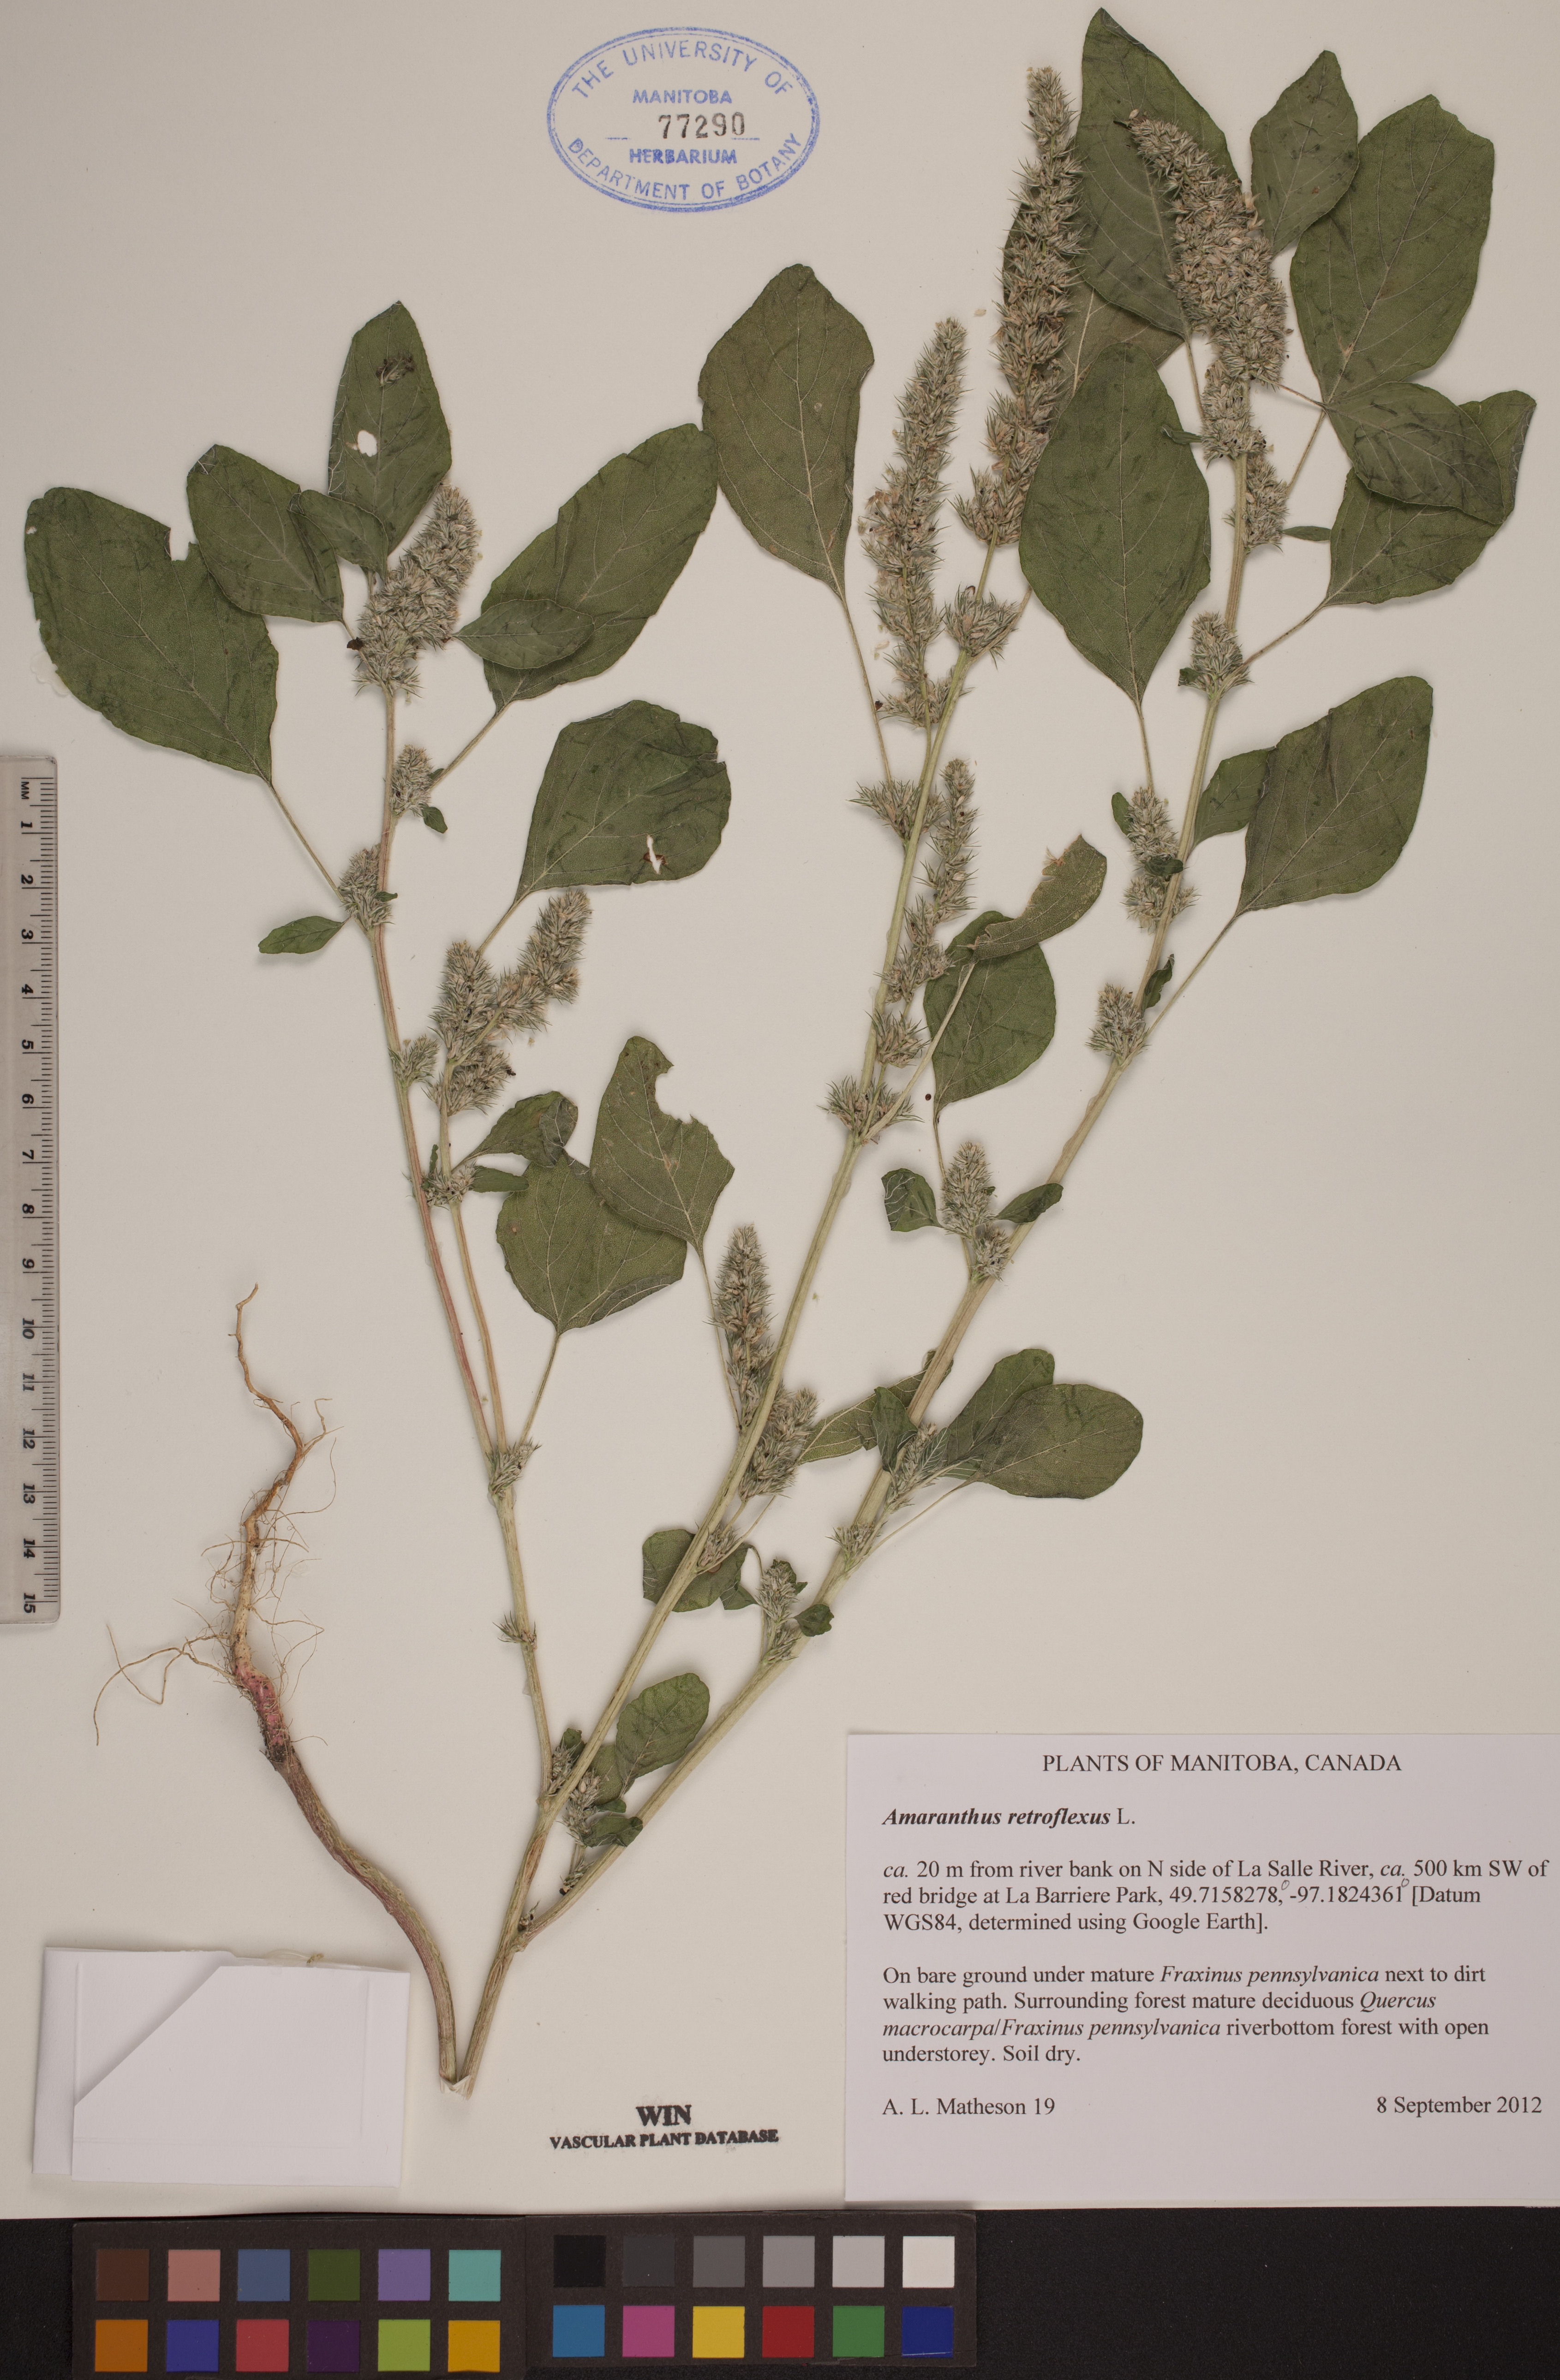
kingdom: Plantae
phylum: Tracheophyta
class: Magnoliopsida
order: Caryophyllales
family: Amaranthaceae
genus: Amaranthus
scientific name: Amaranthus retroflexus
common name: Redroot amaranth
